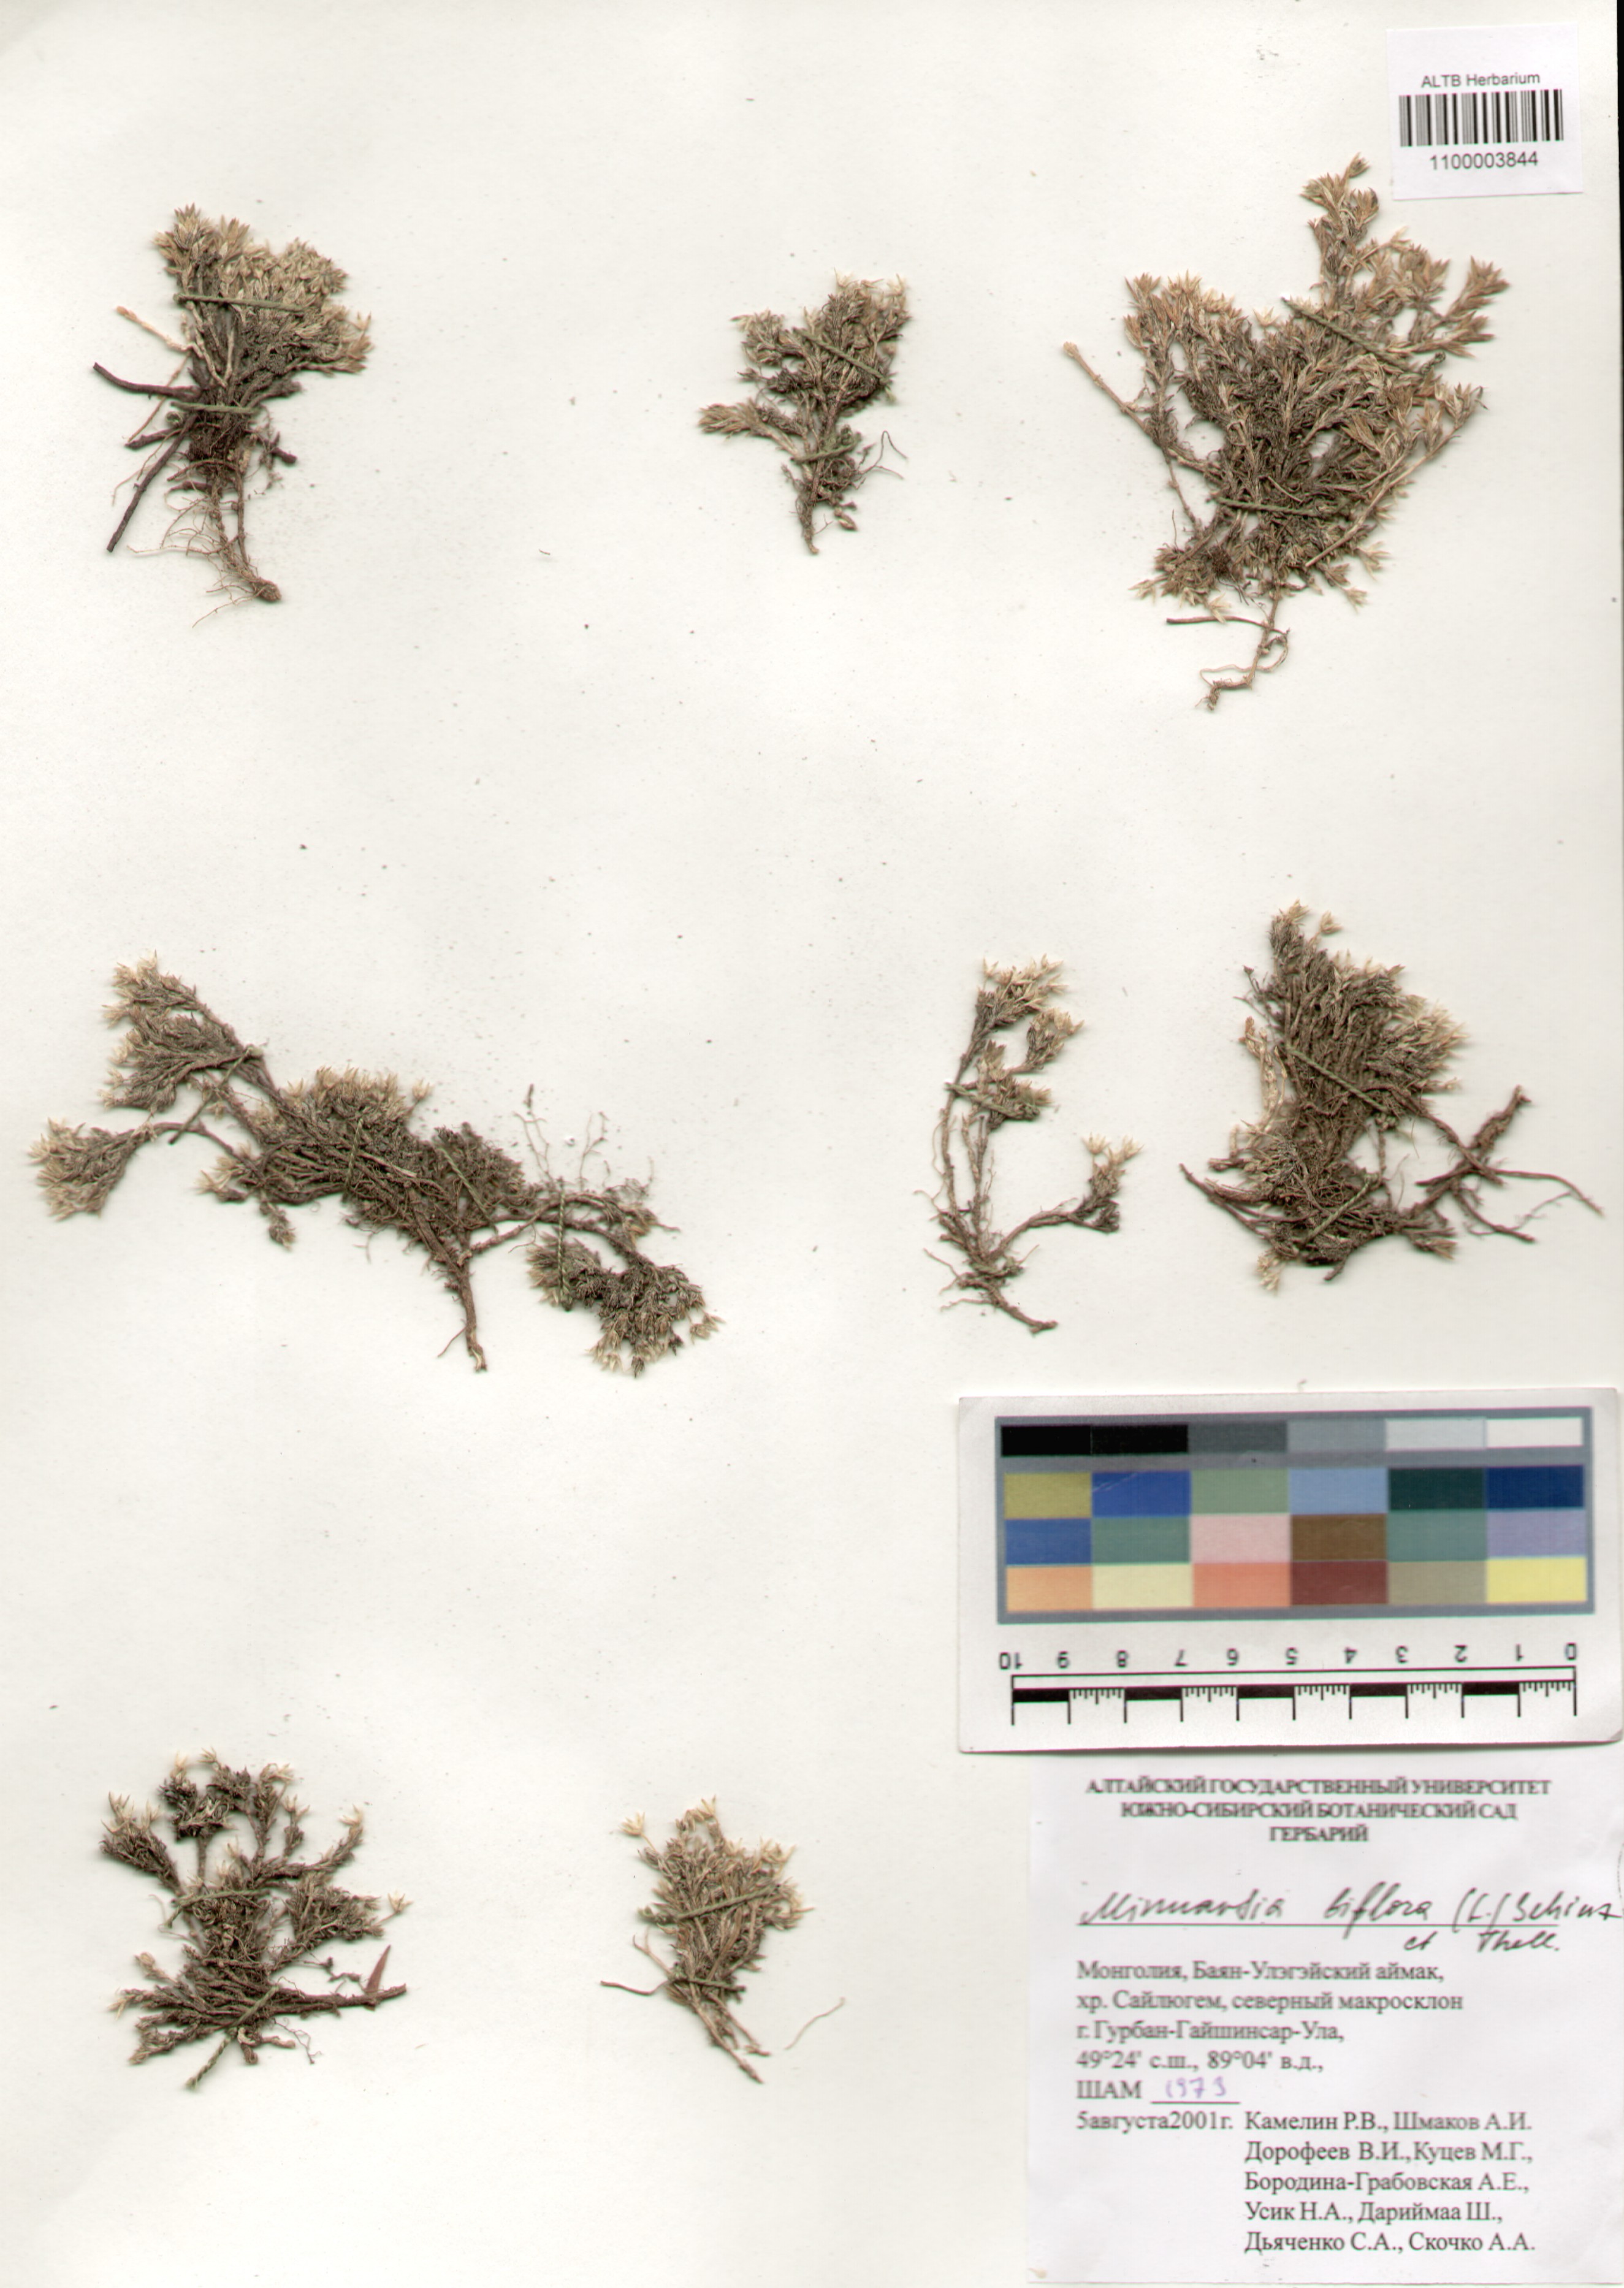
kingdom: Plantae
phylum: Tracheophyta
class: Magnoliopsida
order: Caryophyllales
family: Caryophyllaceae
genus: Cherleria
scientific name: Cherleria biflora
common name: Mountain sandwort
